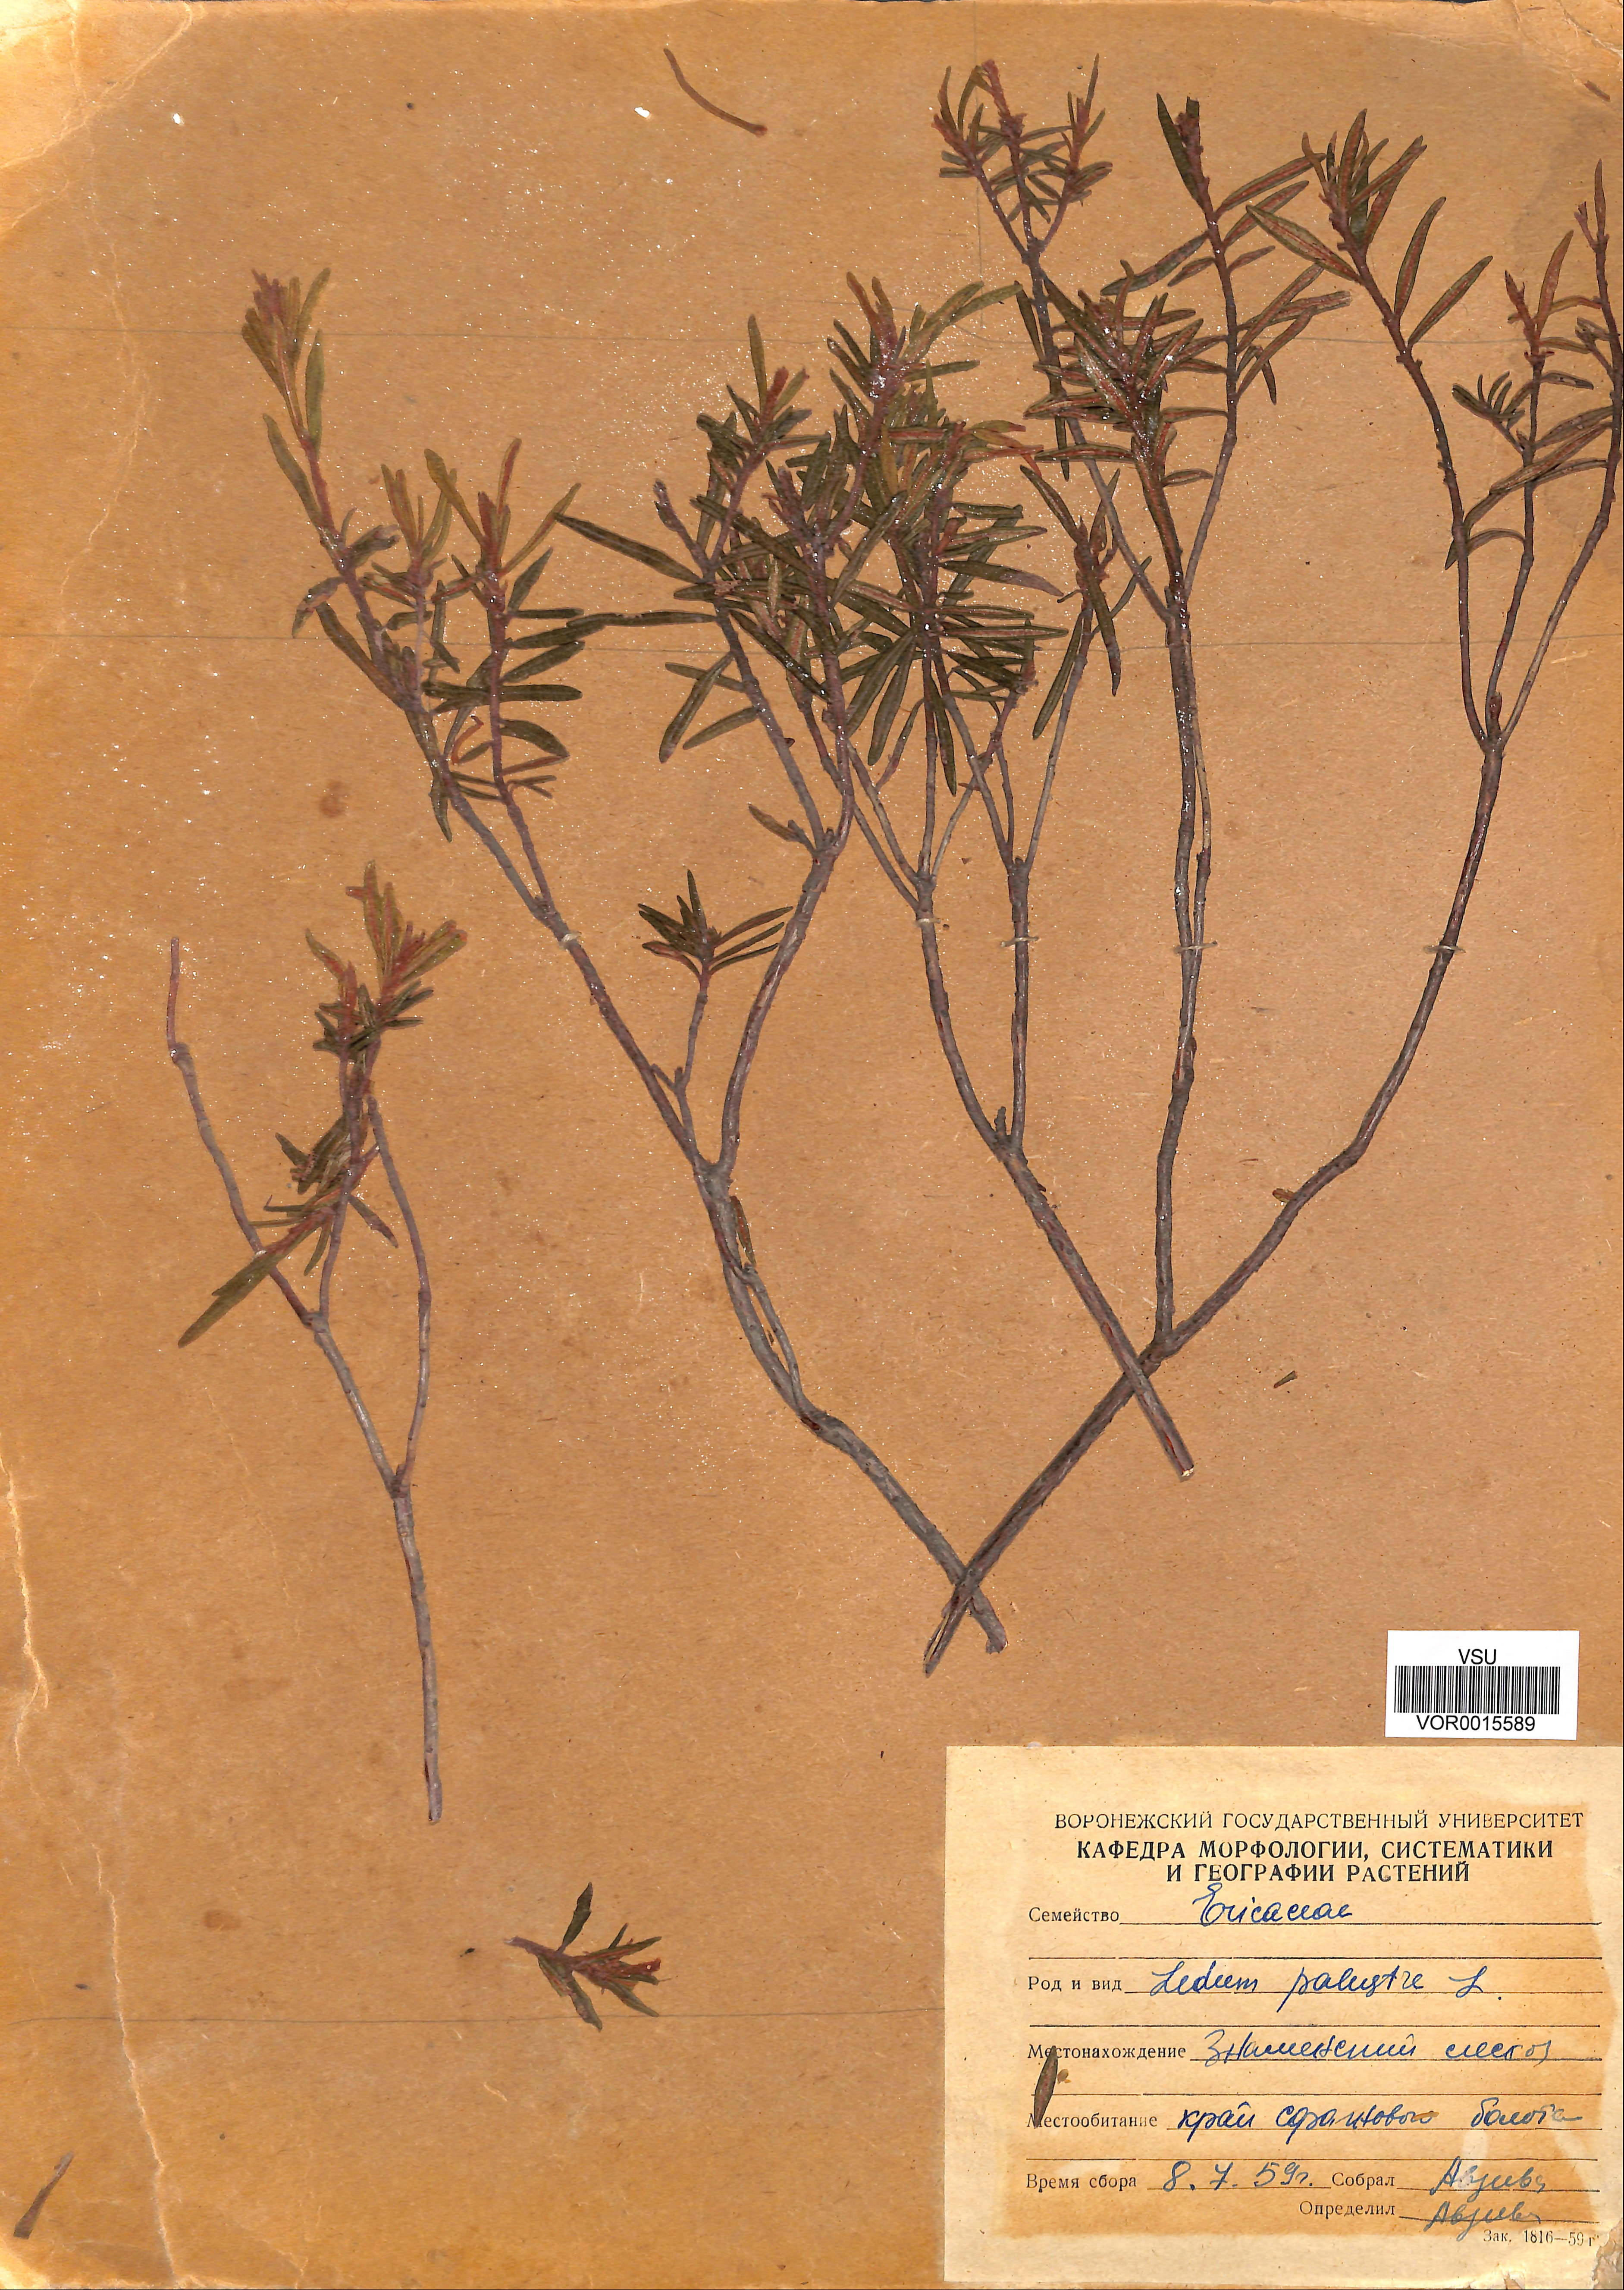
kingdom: Plantae
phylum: Tracheophyta
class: Magnoliopsida
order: Ericales
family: Ericaceae
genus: Rhododendron
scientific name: Rhododendron tomentosum
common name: Marsh labrador tea
